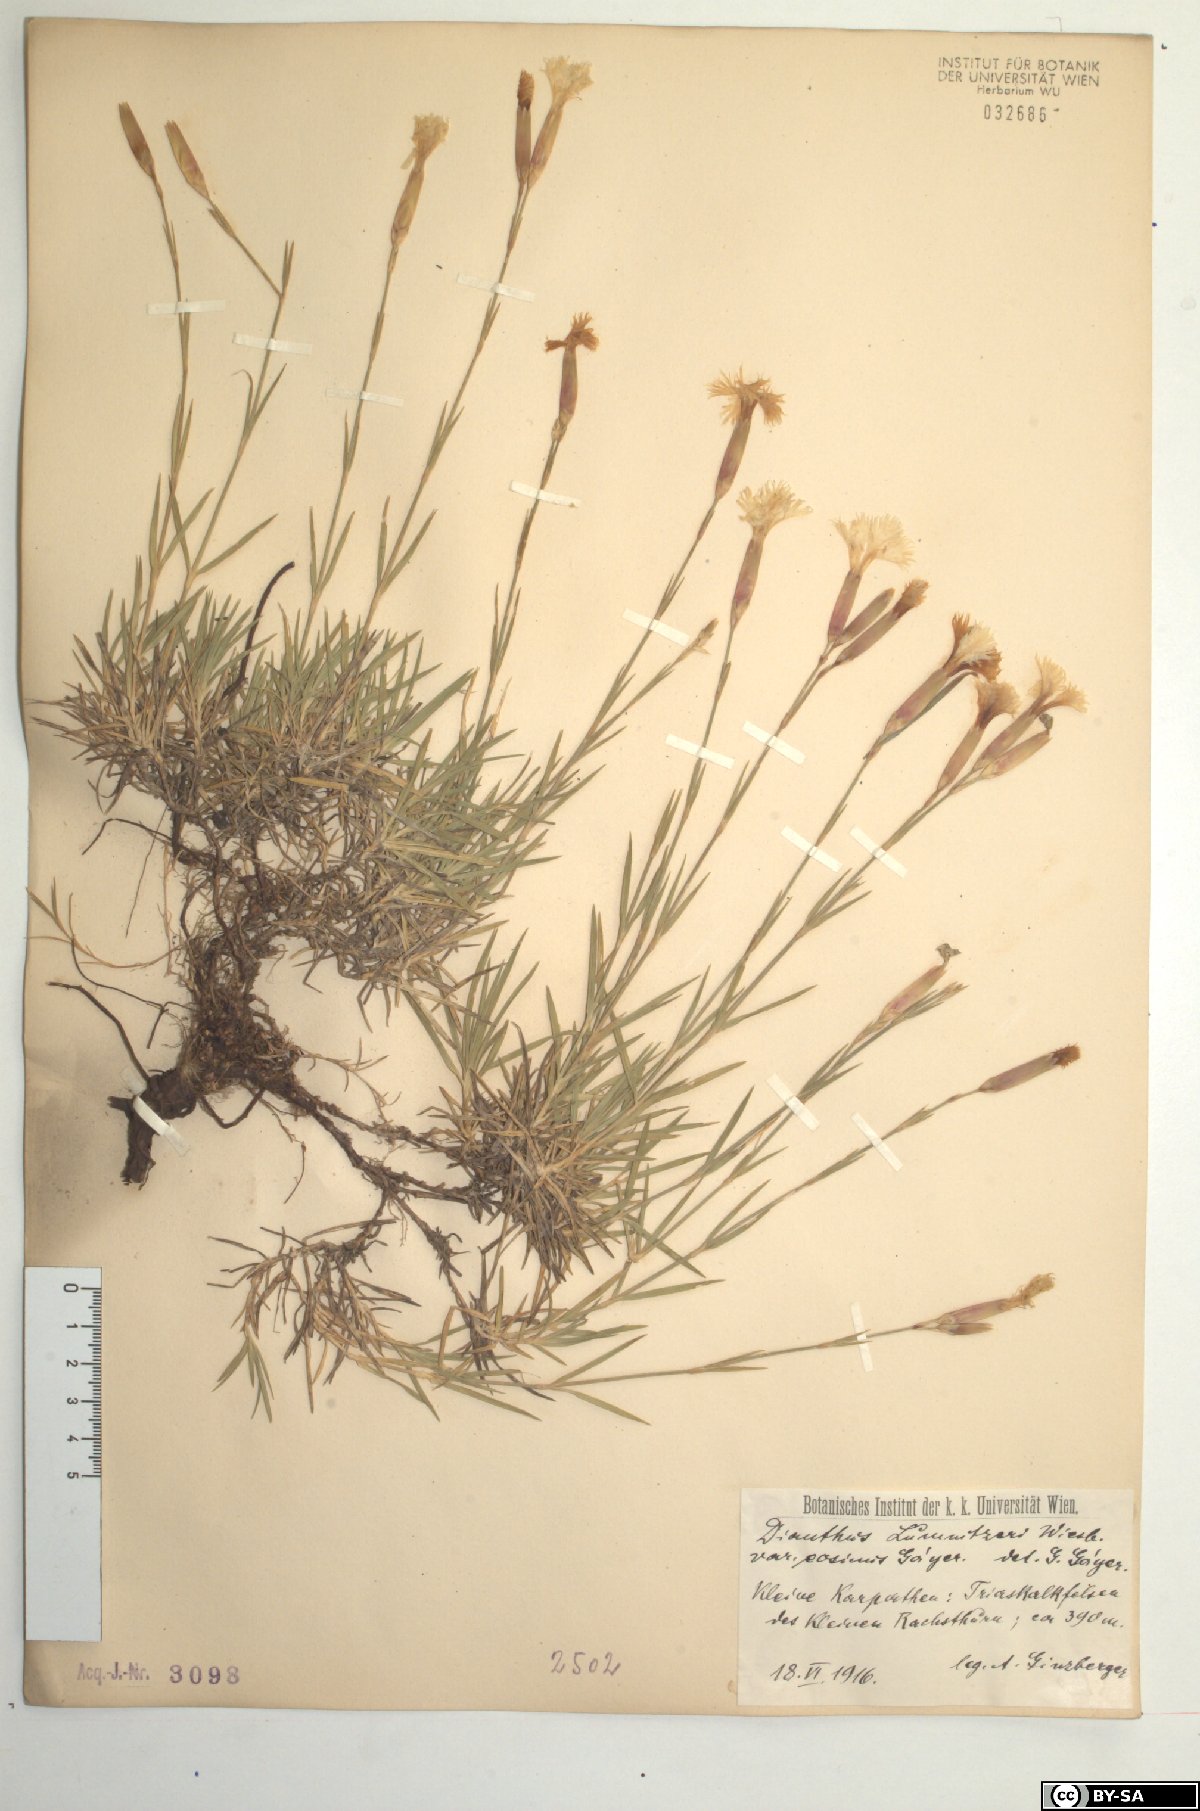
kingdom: Plantae
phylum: Tracheophyta
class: Magnoliopsida
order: Caryophyllales
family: Caryophyllaceae
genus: Dianthus
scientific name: Dianthus praecox
